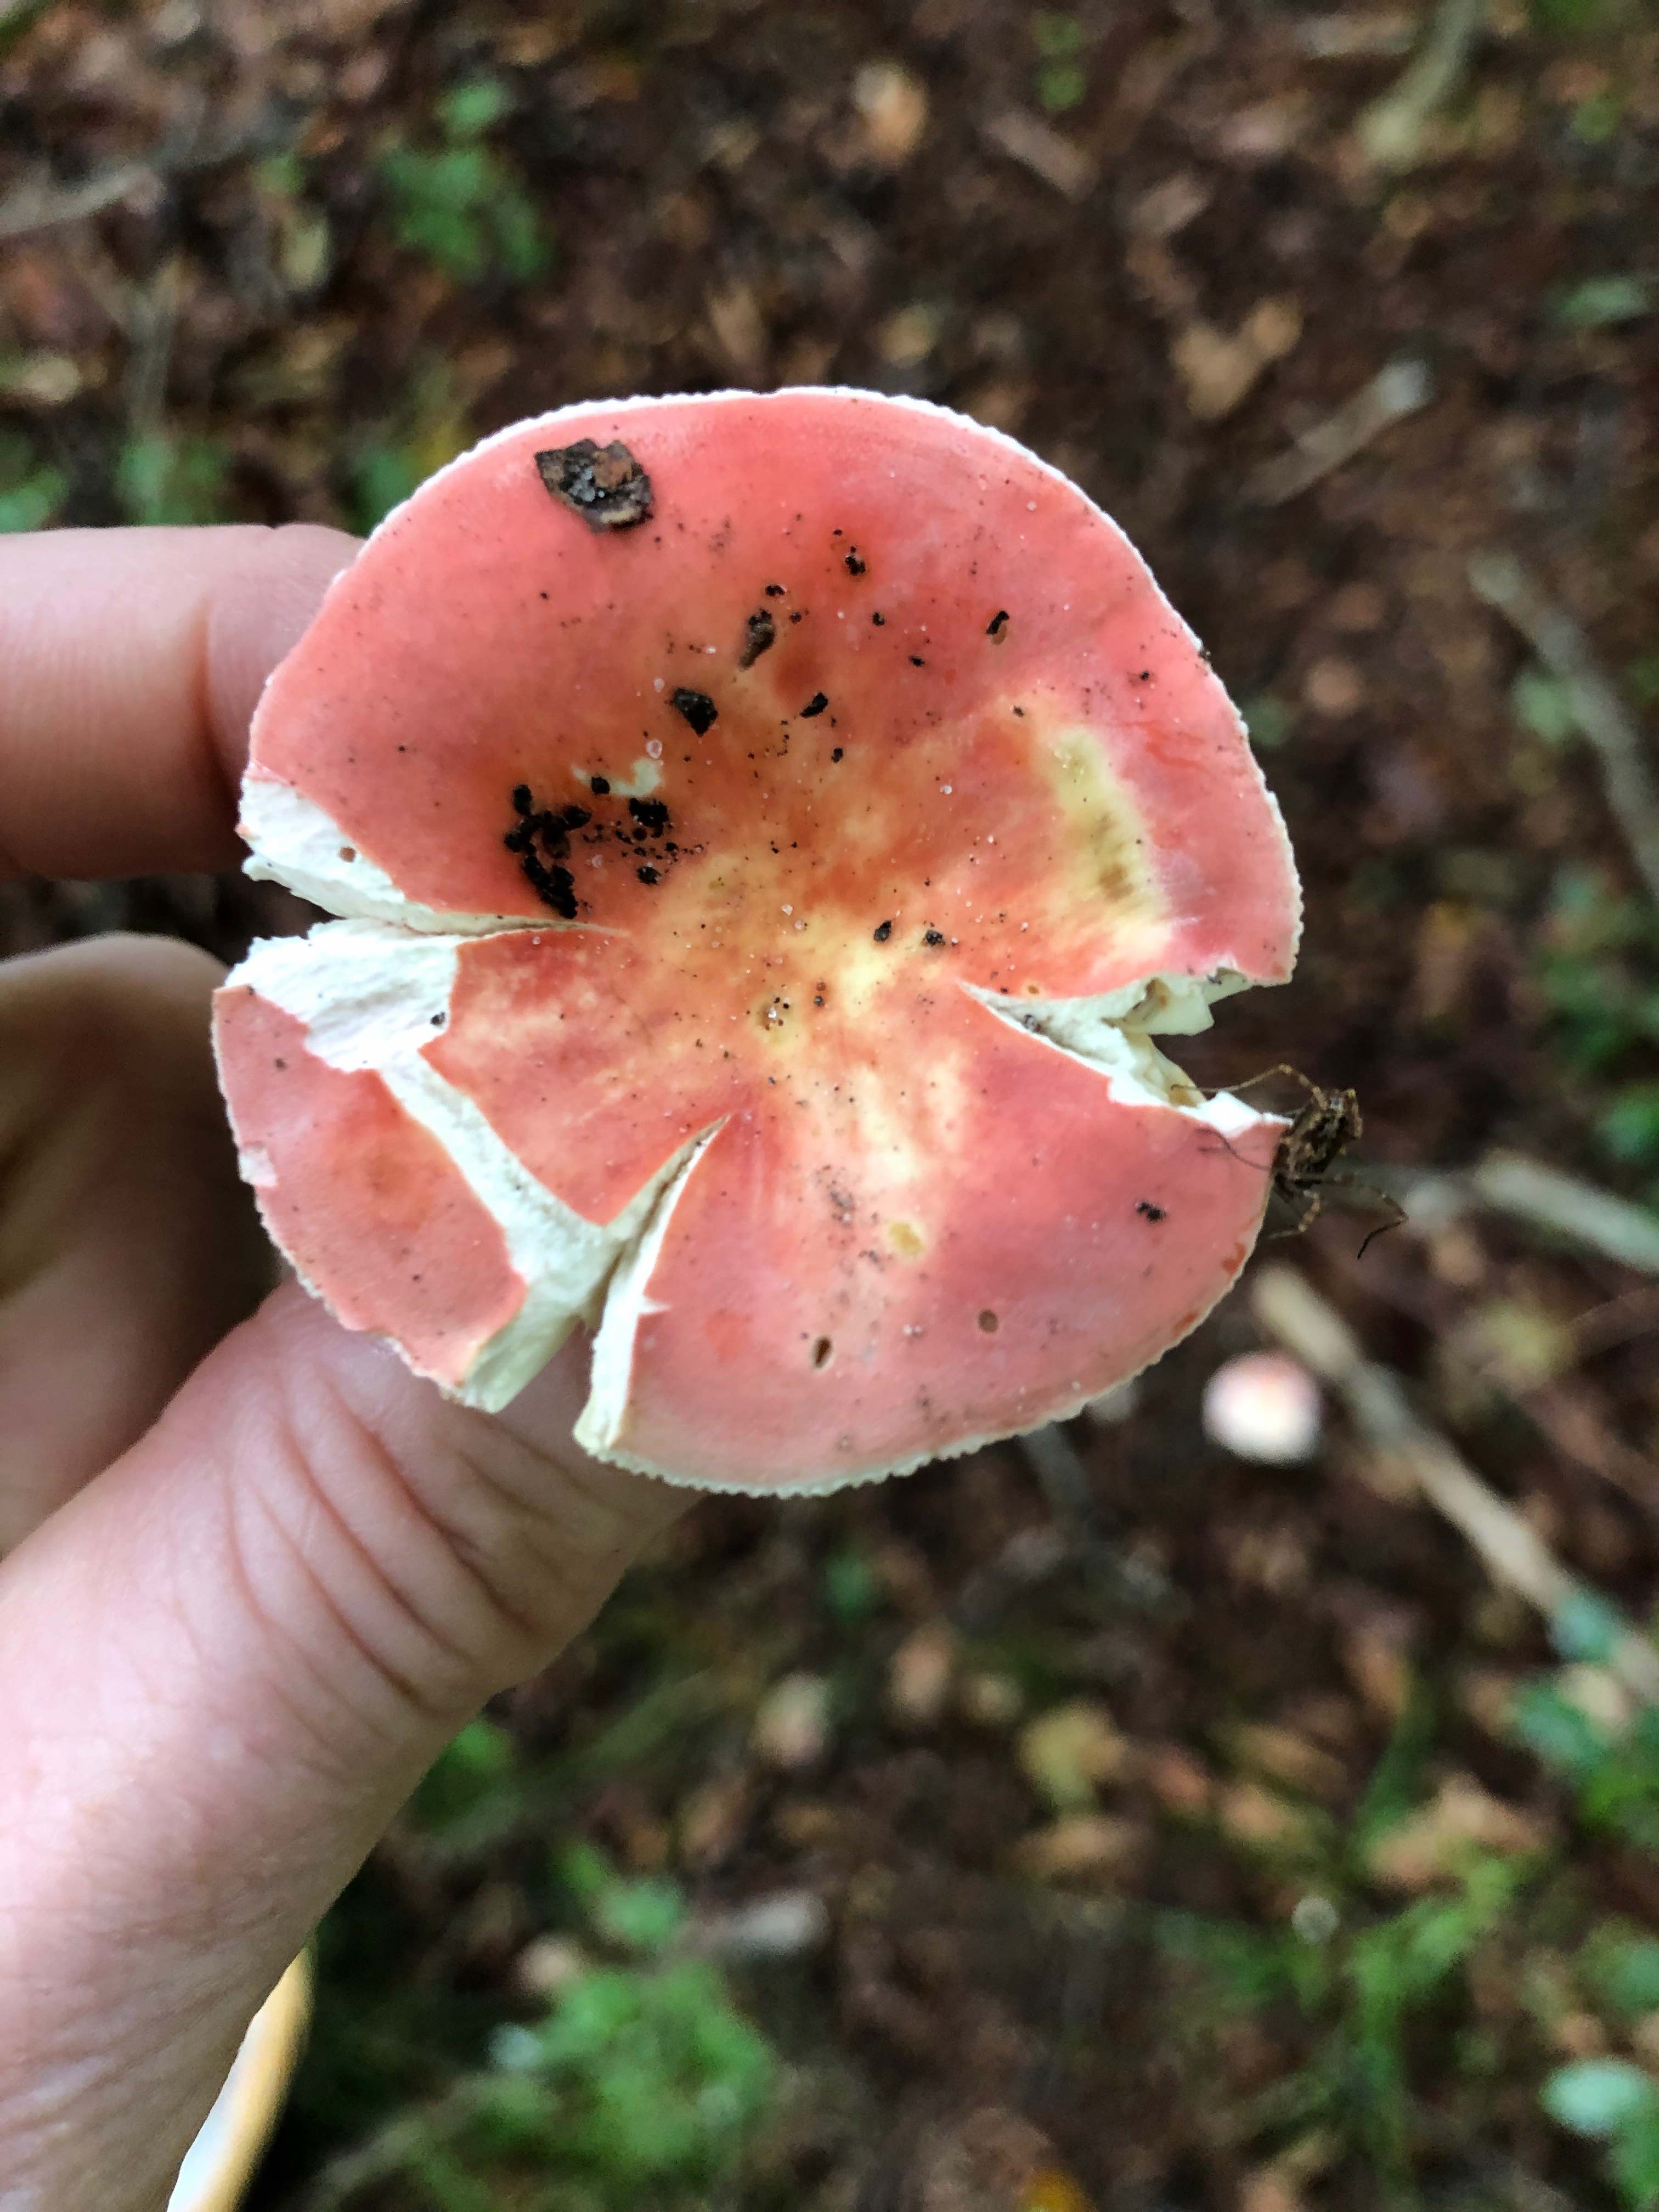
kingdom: Fungi
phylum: Basidiomycota
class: Agaricomycetes
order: Russulales
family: Russulaceae
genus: Russula
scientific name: Russula rosea
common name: fastkødet skørhat
